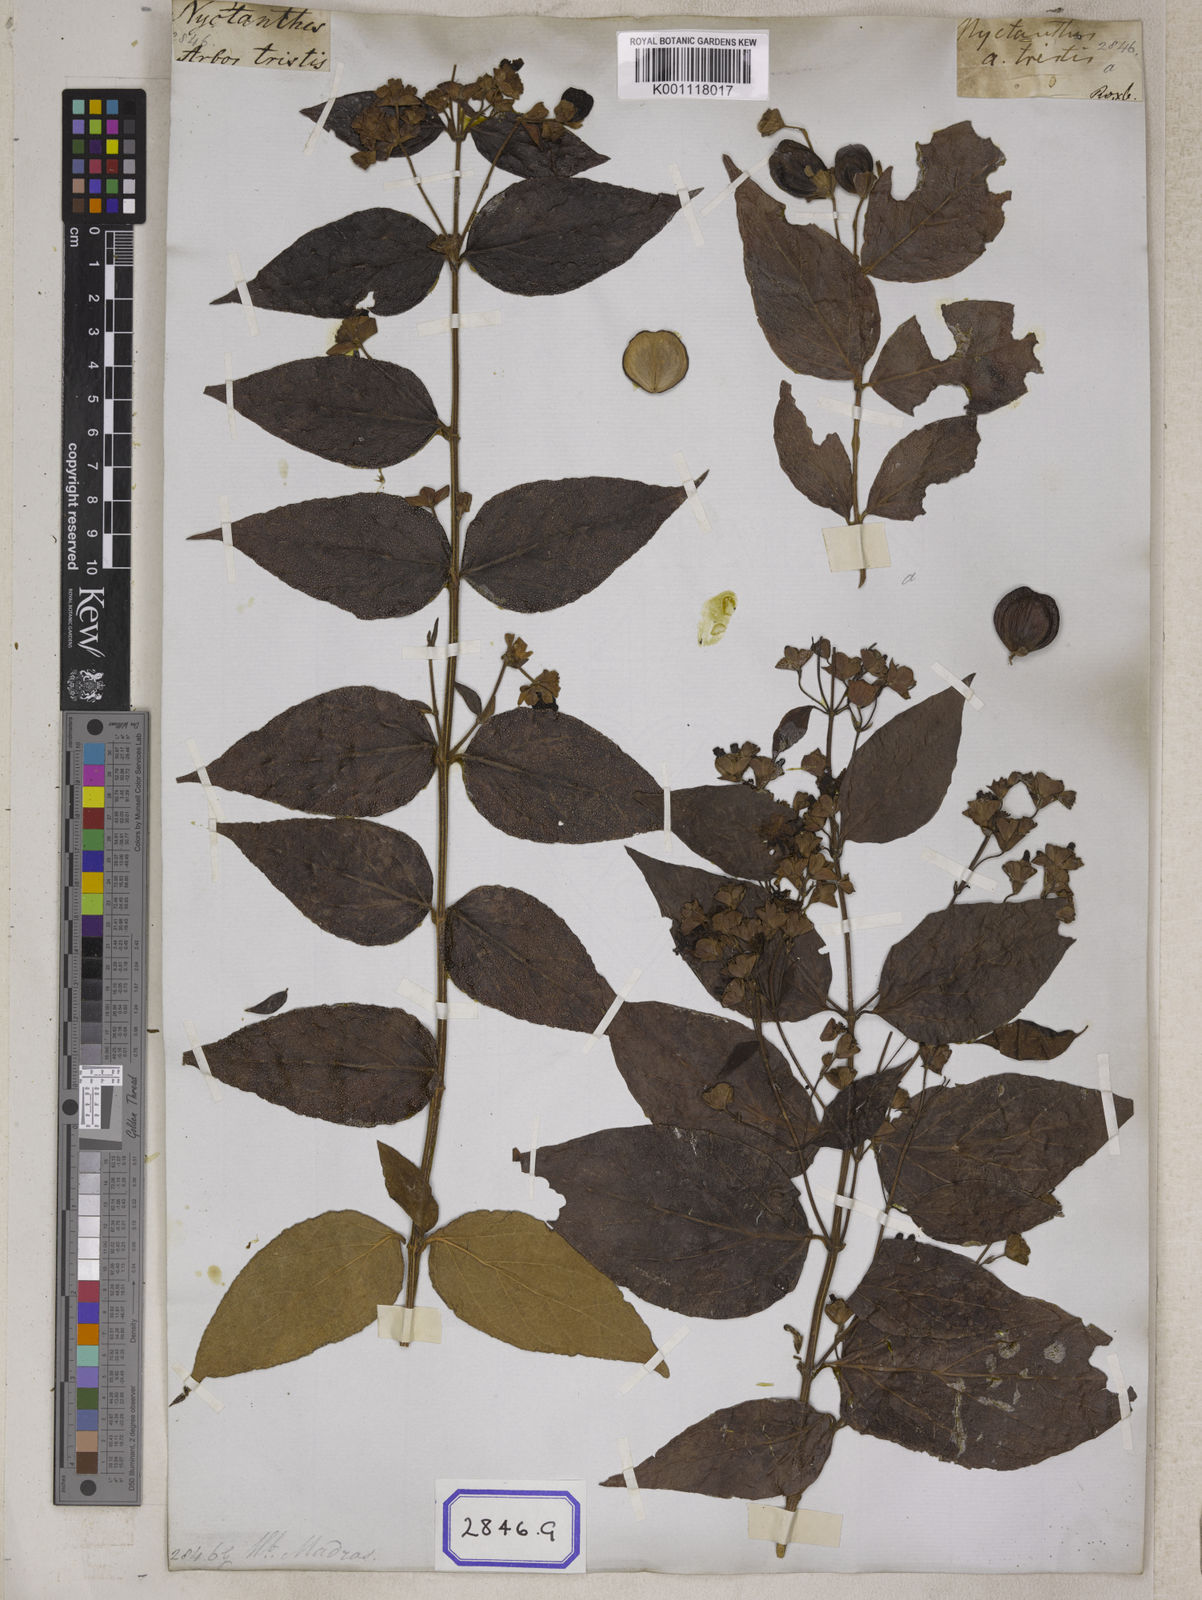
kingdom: Plantae
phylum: Tracheophyta
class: Magnoliopsida
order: Lamiales
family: Oleaceae
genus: Nyctanthes
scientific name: Nyctanthes arbor-tristis
